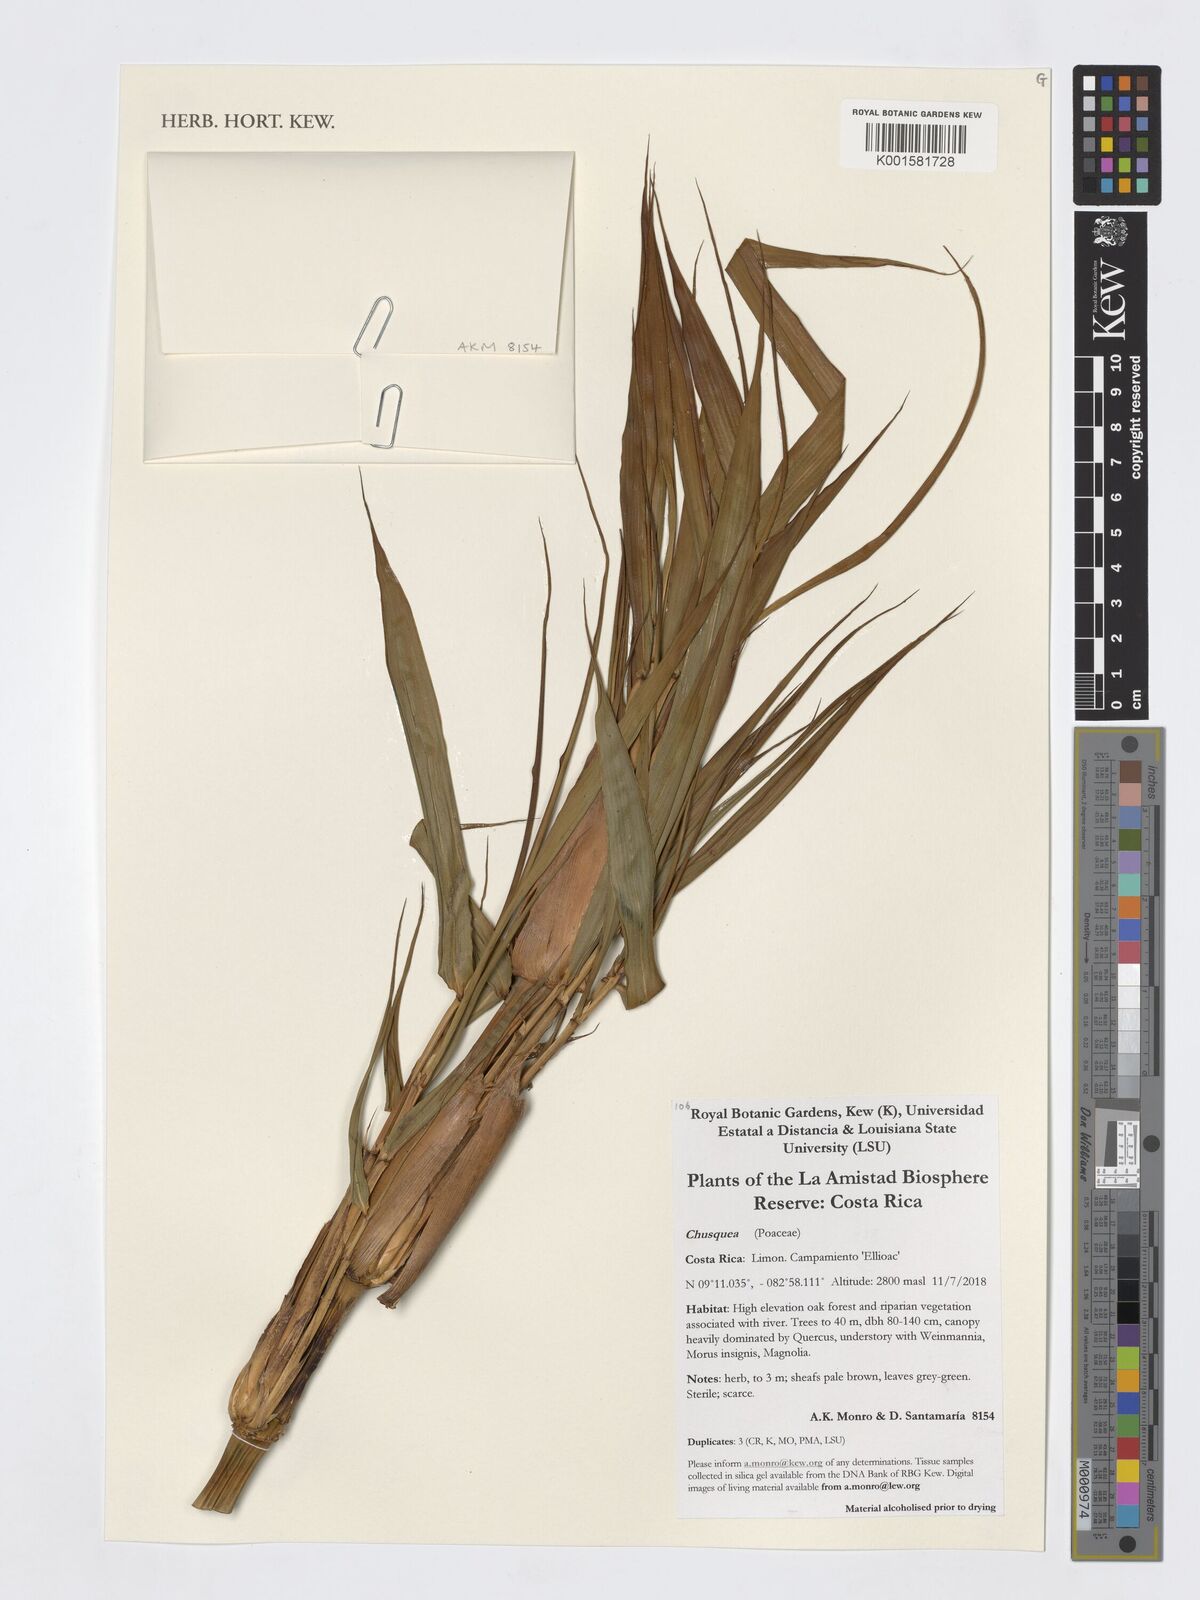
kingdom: Plantae
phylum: Tracheophyta
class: Liliopsida
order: Poales
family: Poaceae
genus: Chusquea
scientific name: Chusquea
